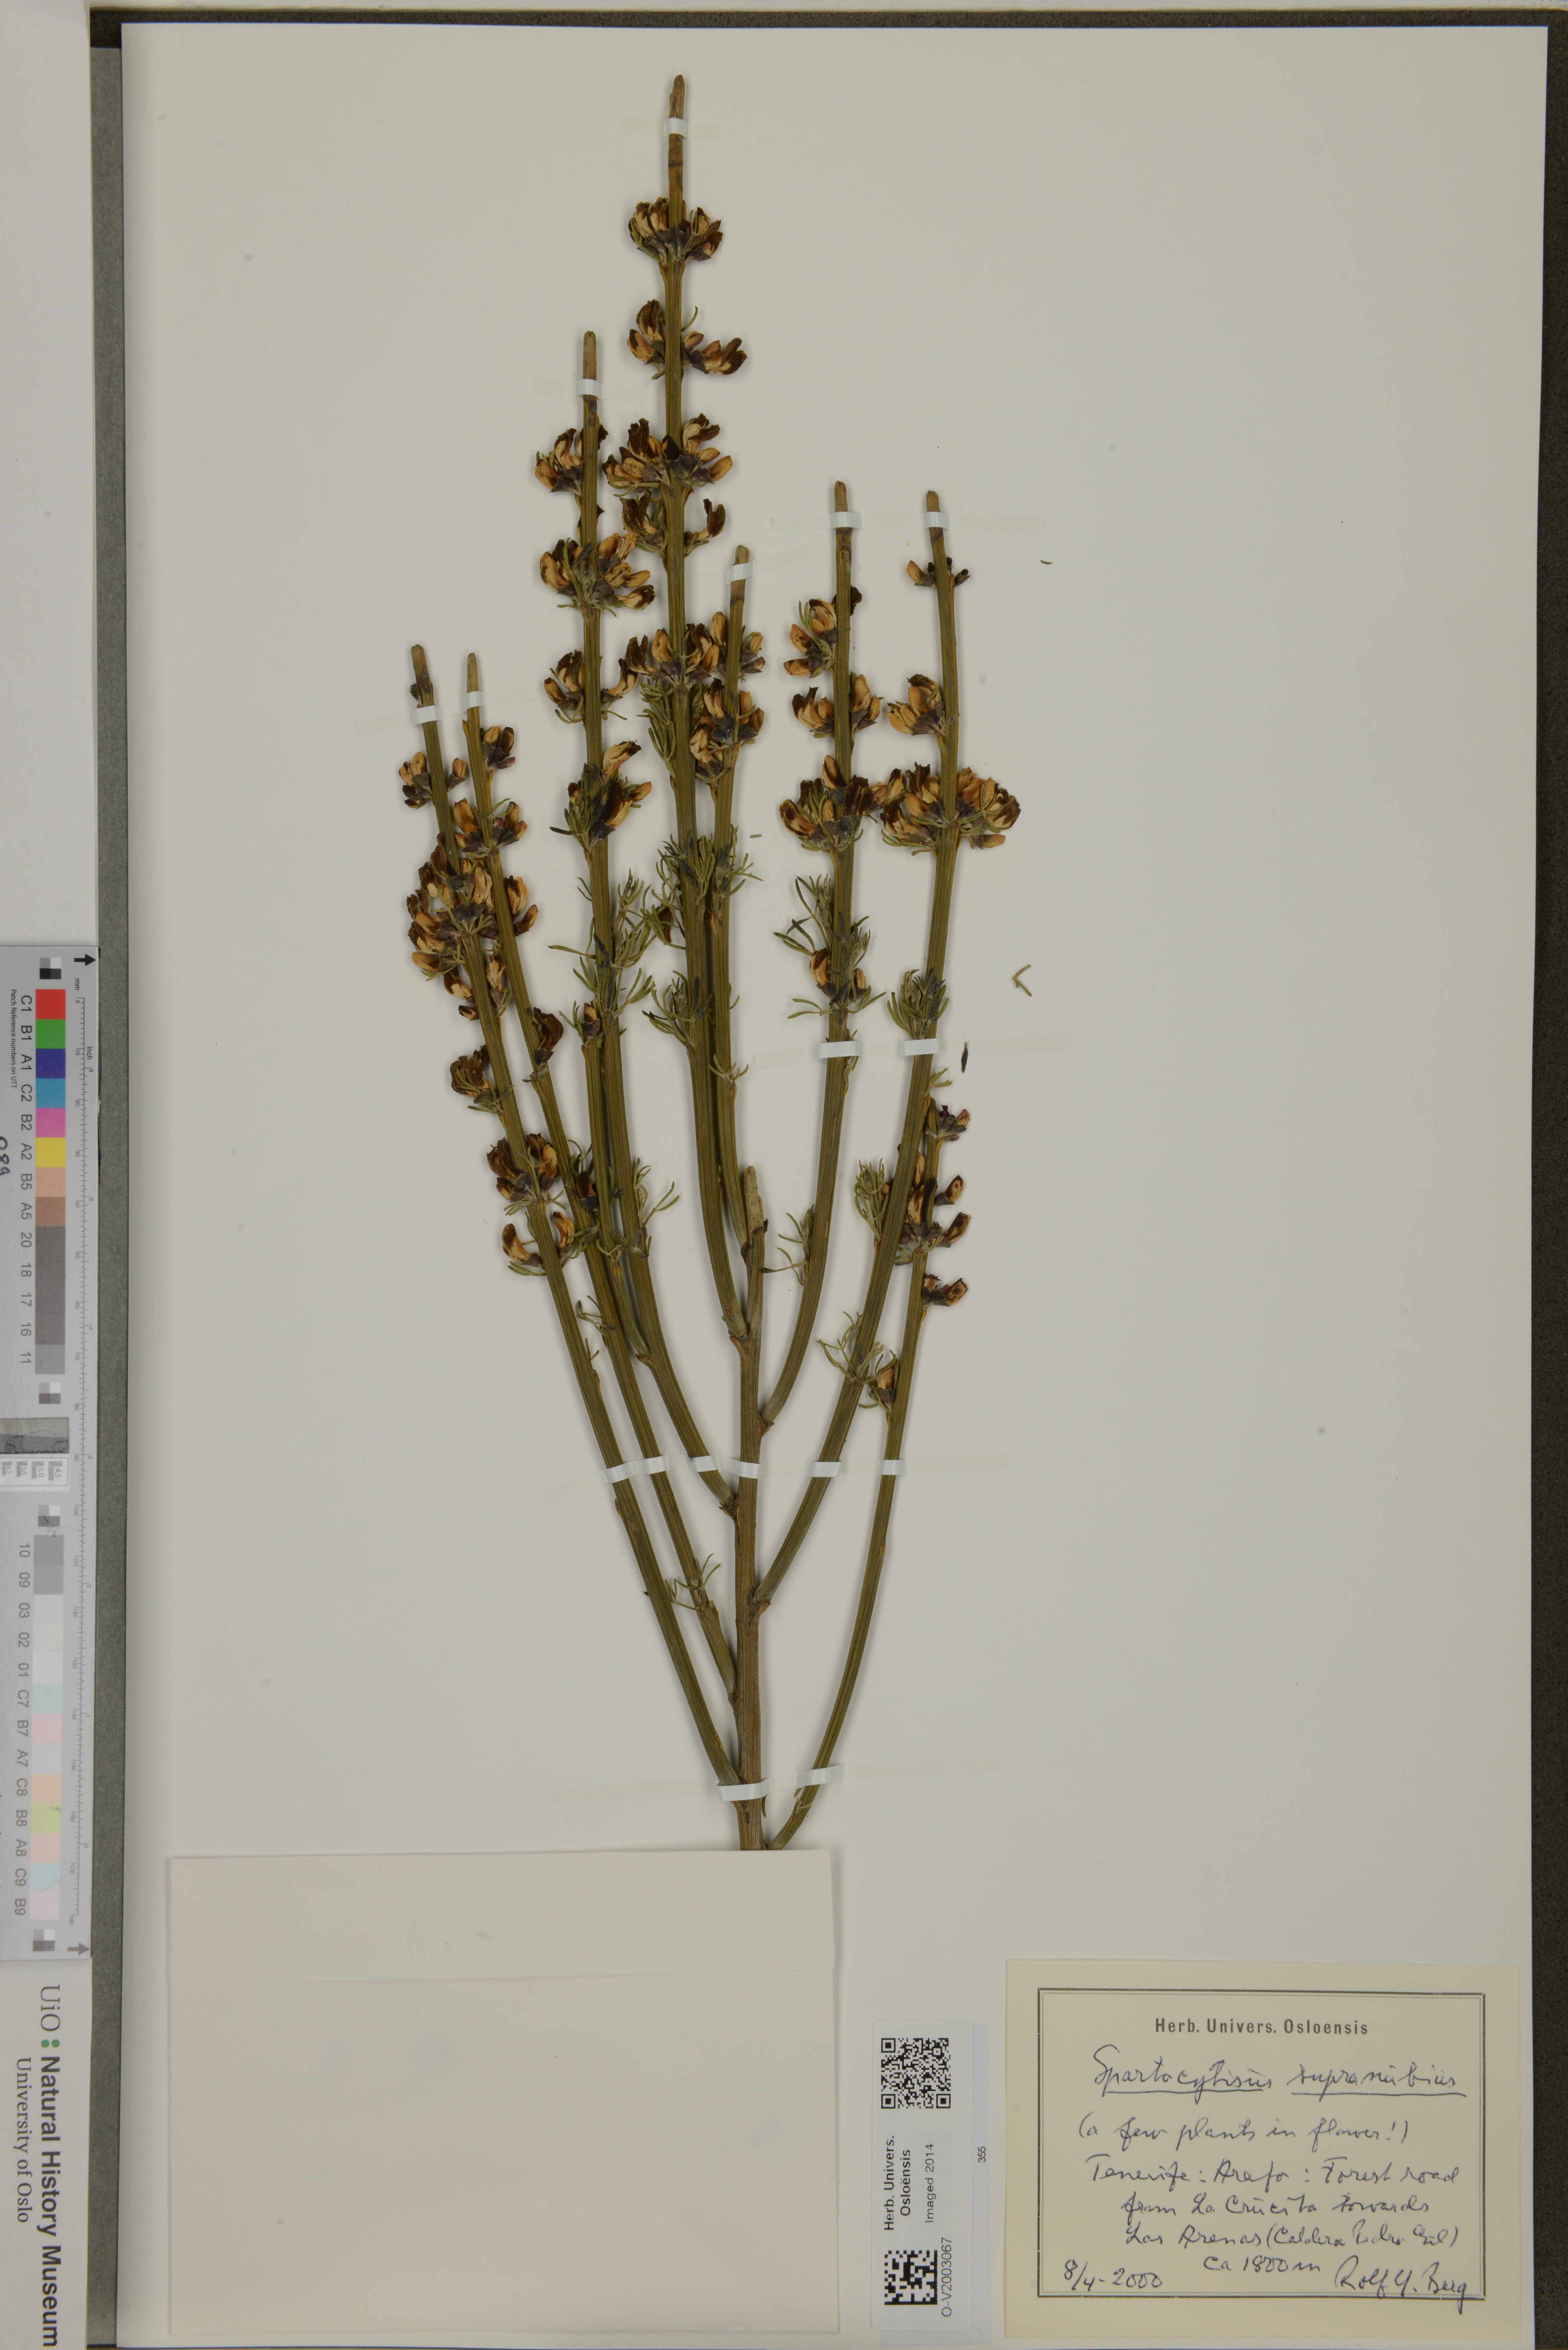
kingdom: Plantae
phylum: Tracheophyta
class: Magnoliopsida
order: Fabales
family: Fabaceae
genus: Cytisus
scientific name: Cytisus supranubius
